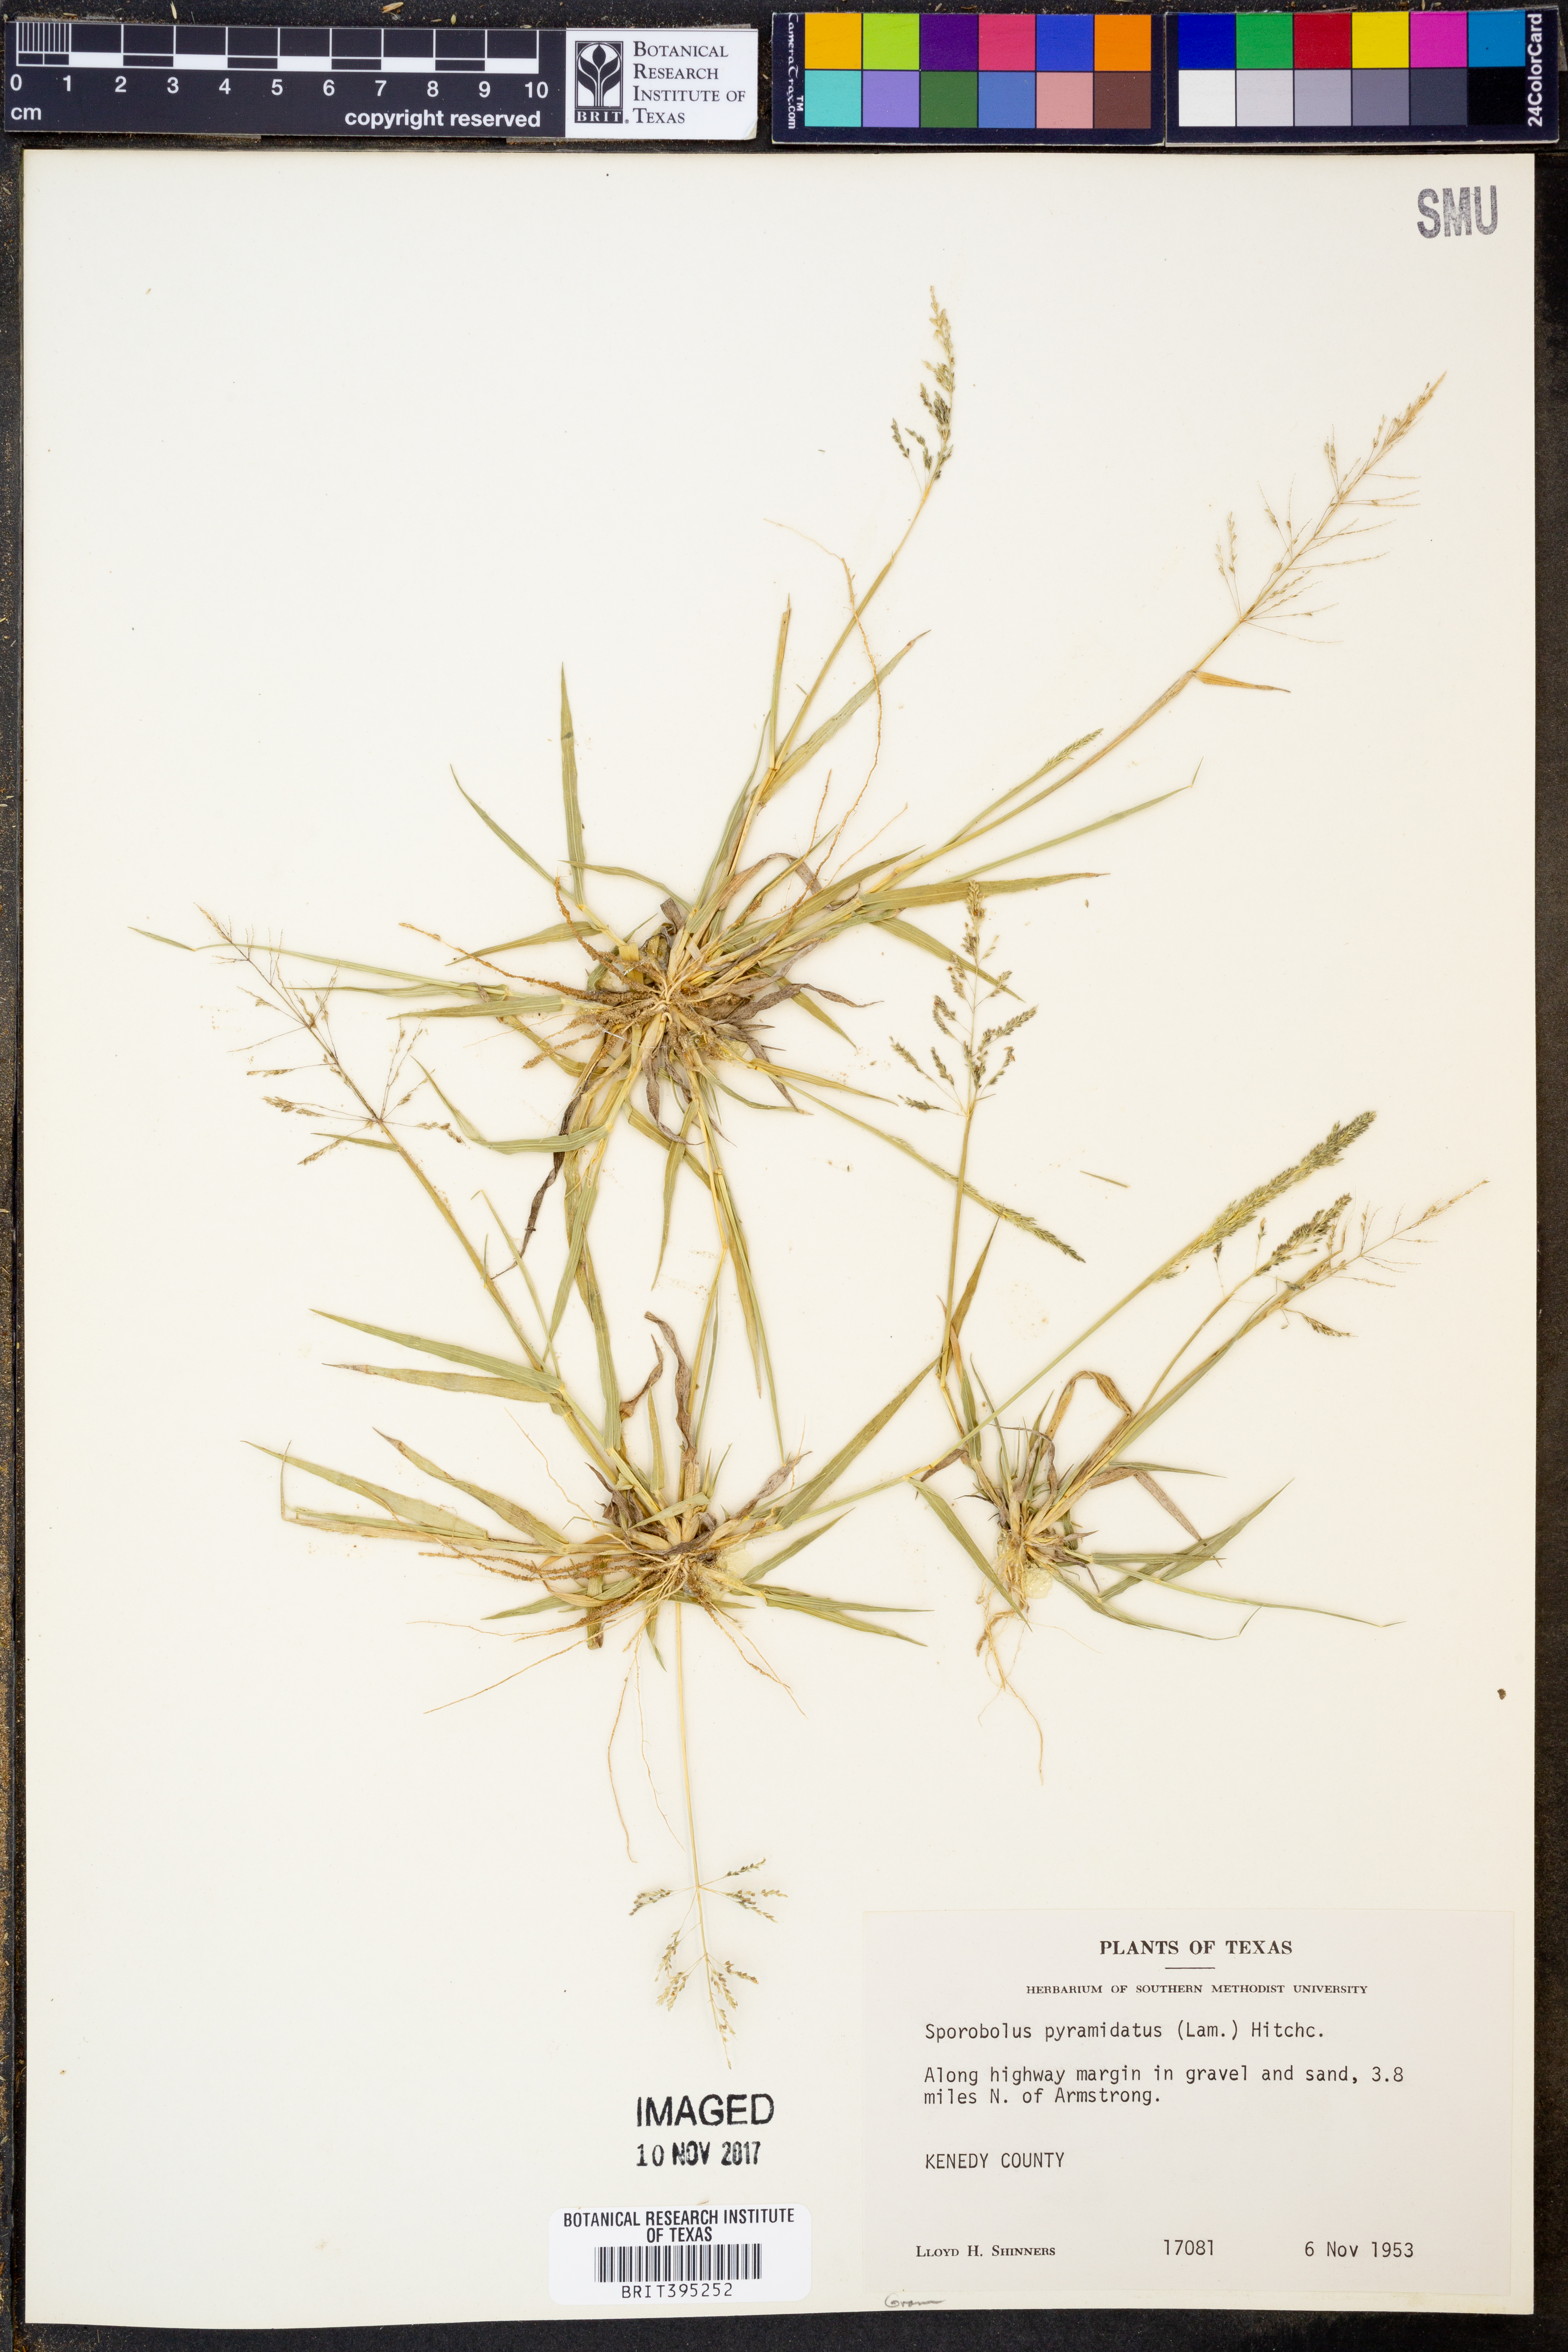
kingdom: Plantae
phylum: Tracheophyta
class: Liliopsida
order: Poales
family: Poaceae
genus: Sporobolus
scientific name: Sporobolus pyramidatus
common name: Whorled dropseed
